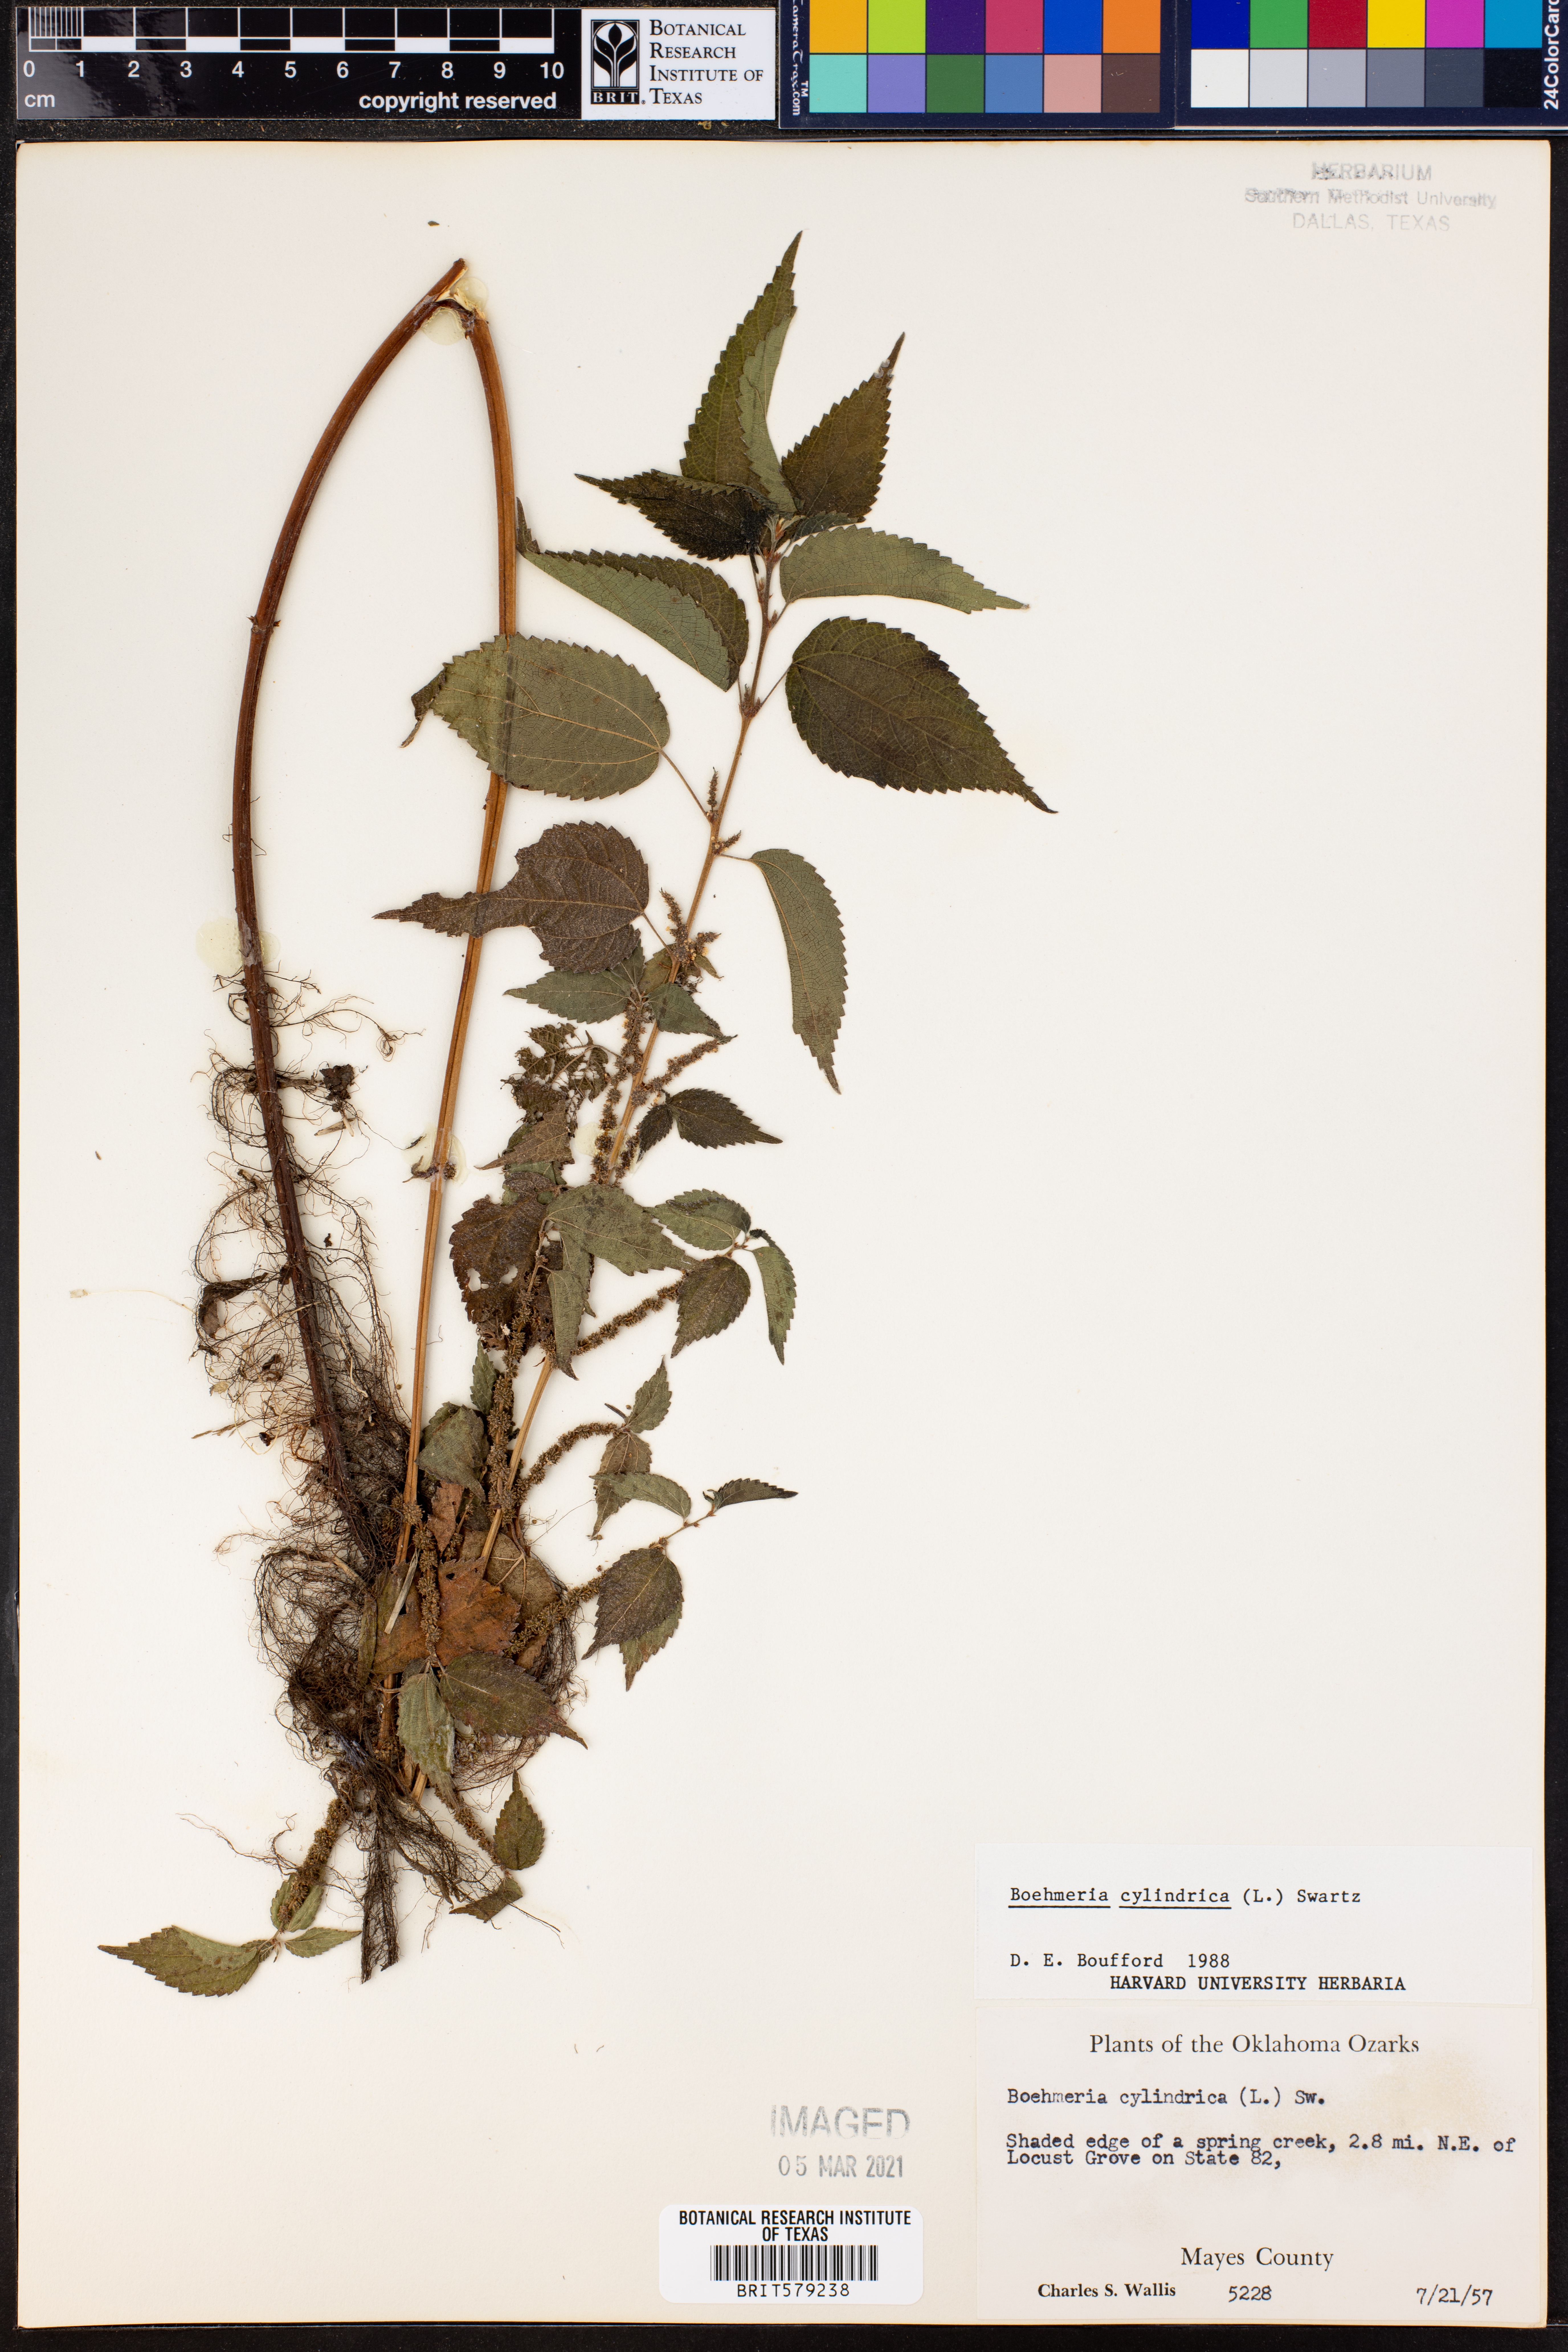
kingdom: Plantae
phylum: Tracheophyta
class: Magnoliopsida
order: Rosales
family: Urticaceae
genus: Boehmeria
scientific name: Boehmeria cylindrica
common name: Bog-hemp
